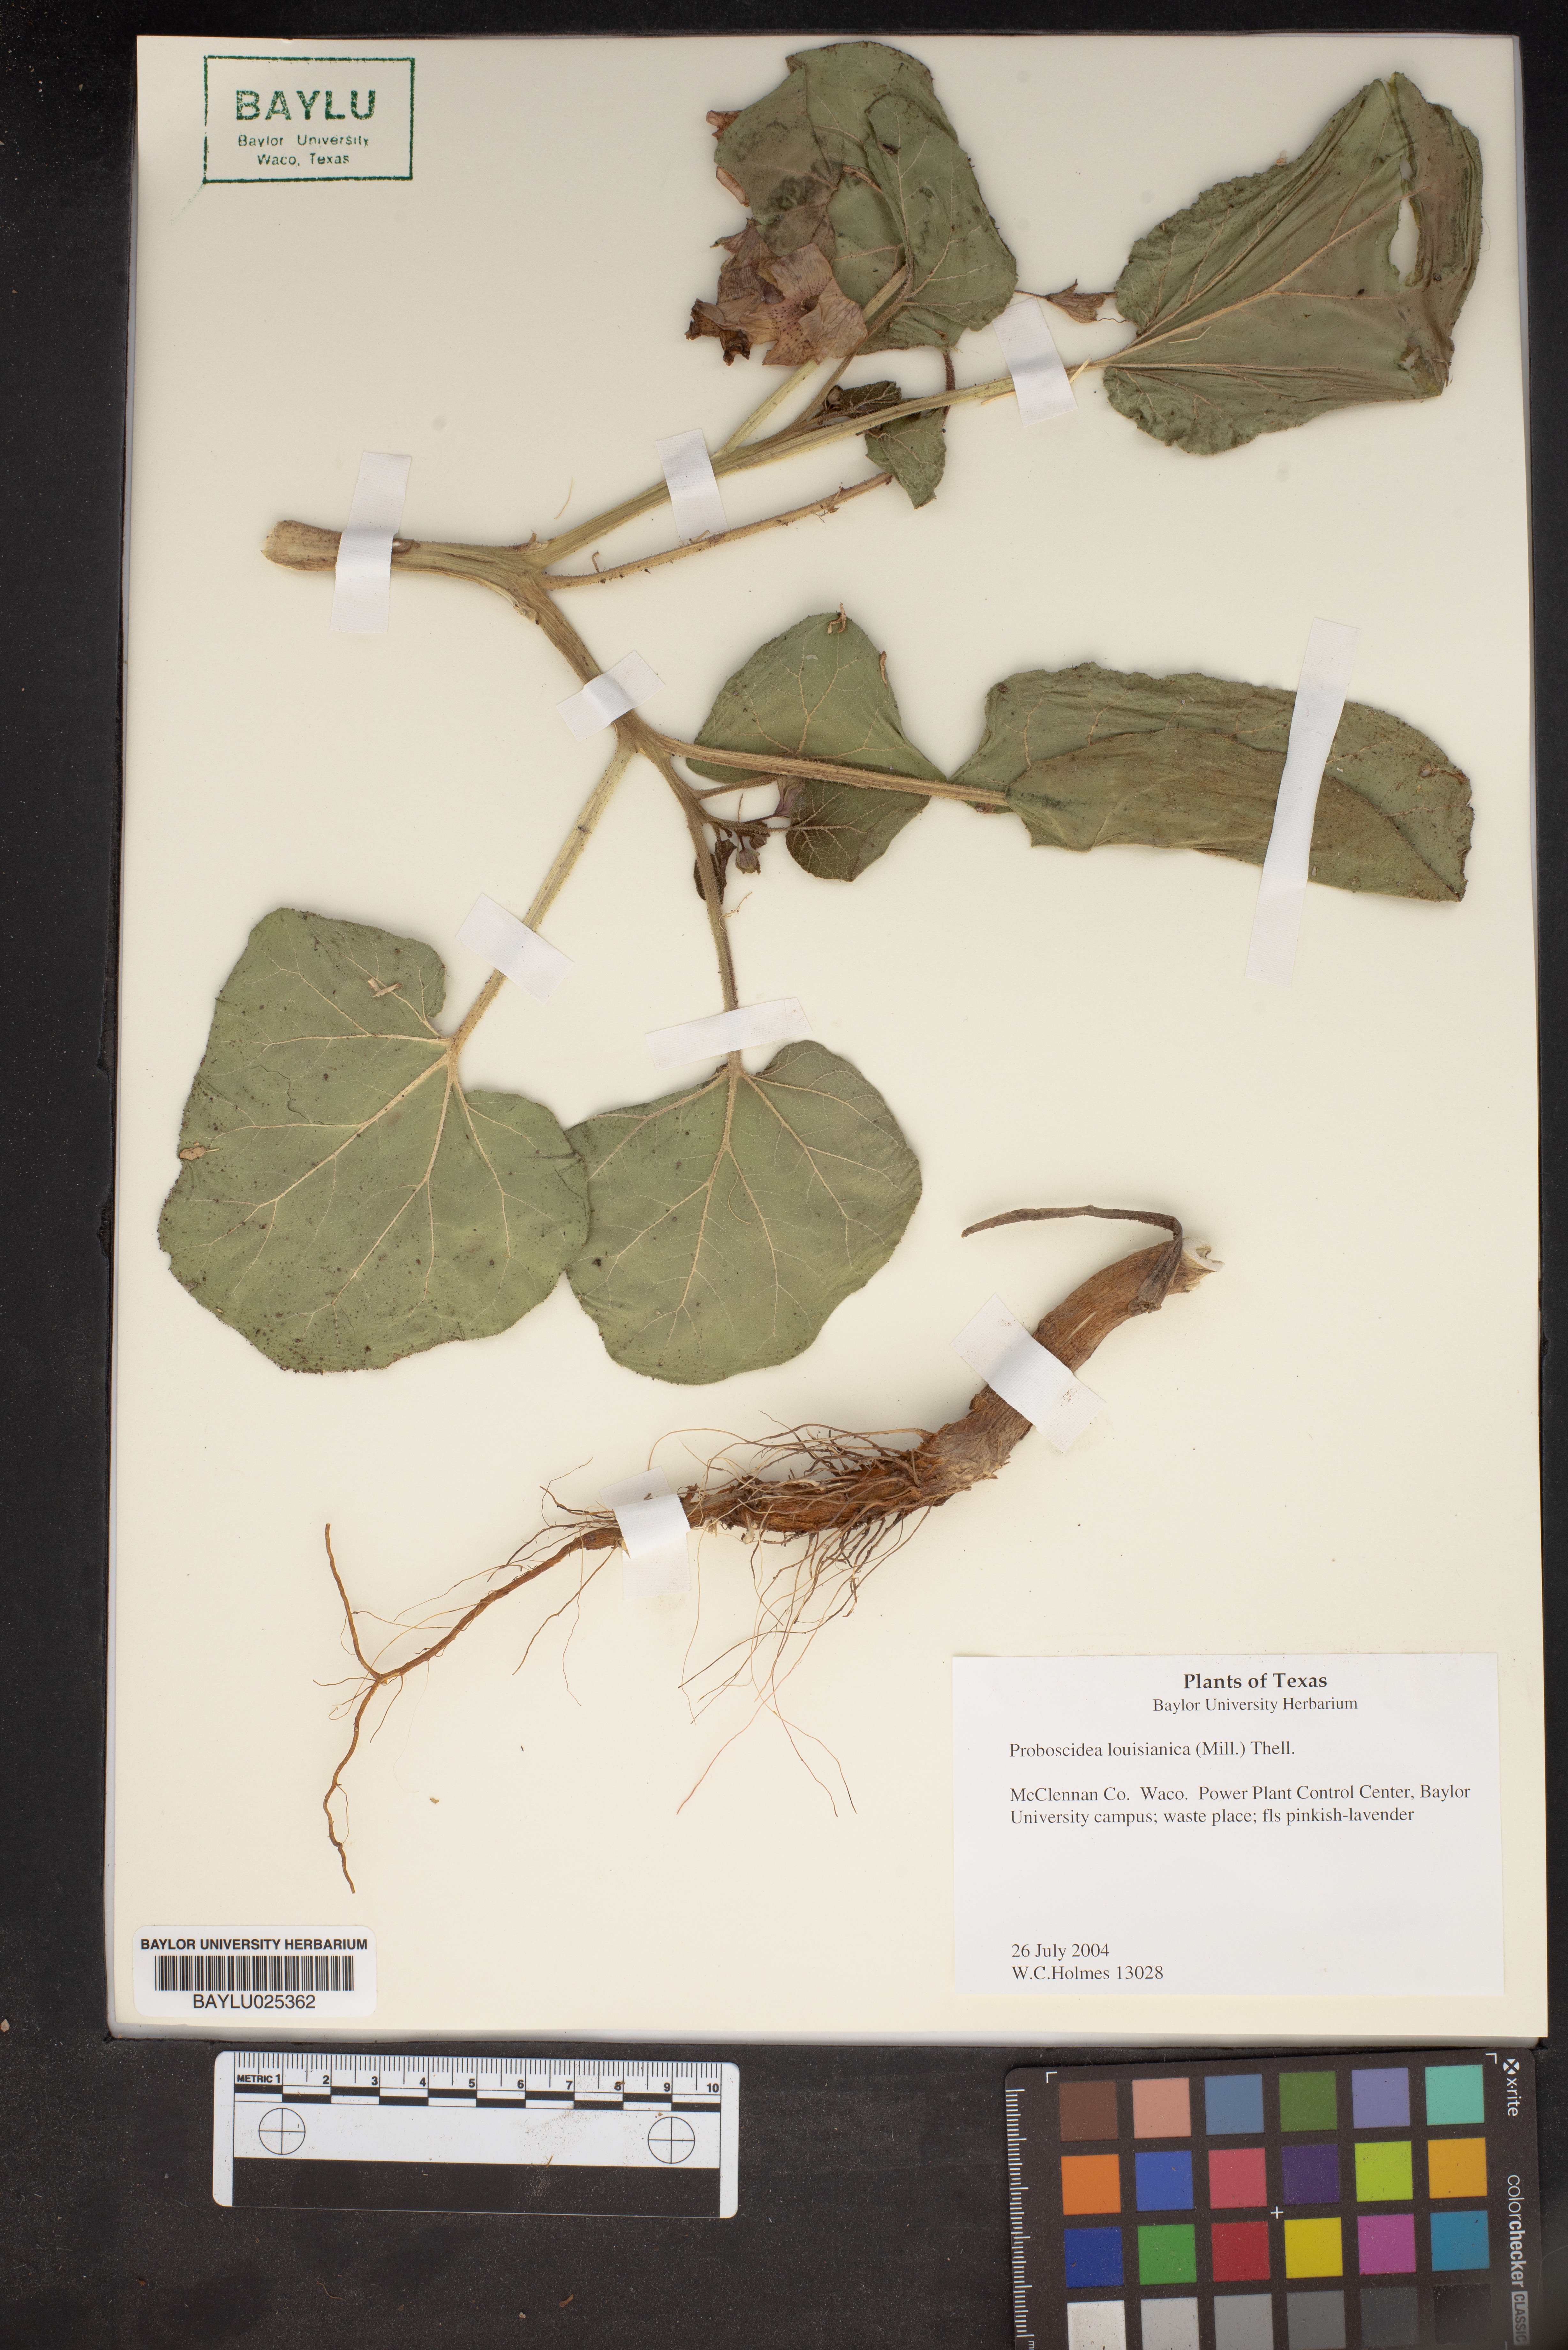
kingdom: Plantae
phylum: Tracheophyta
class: Magnoliopsida
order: Lamiales
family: Martyniaceae
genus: Proboscidea
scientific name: Proboscidea louisianica
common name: Elephant tusks
